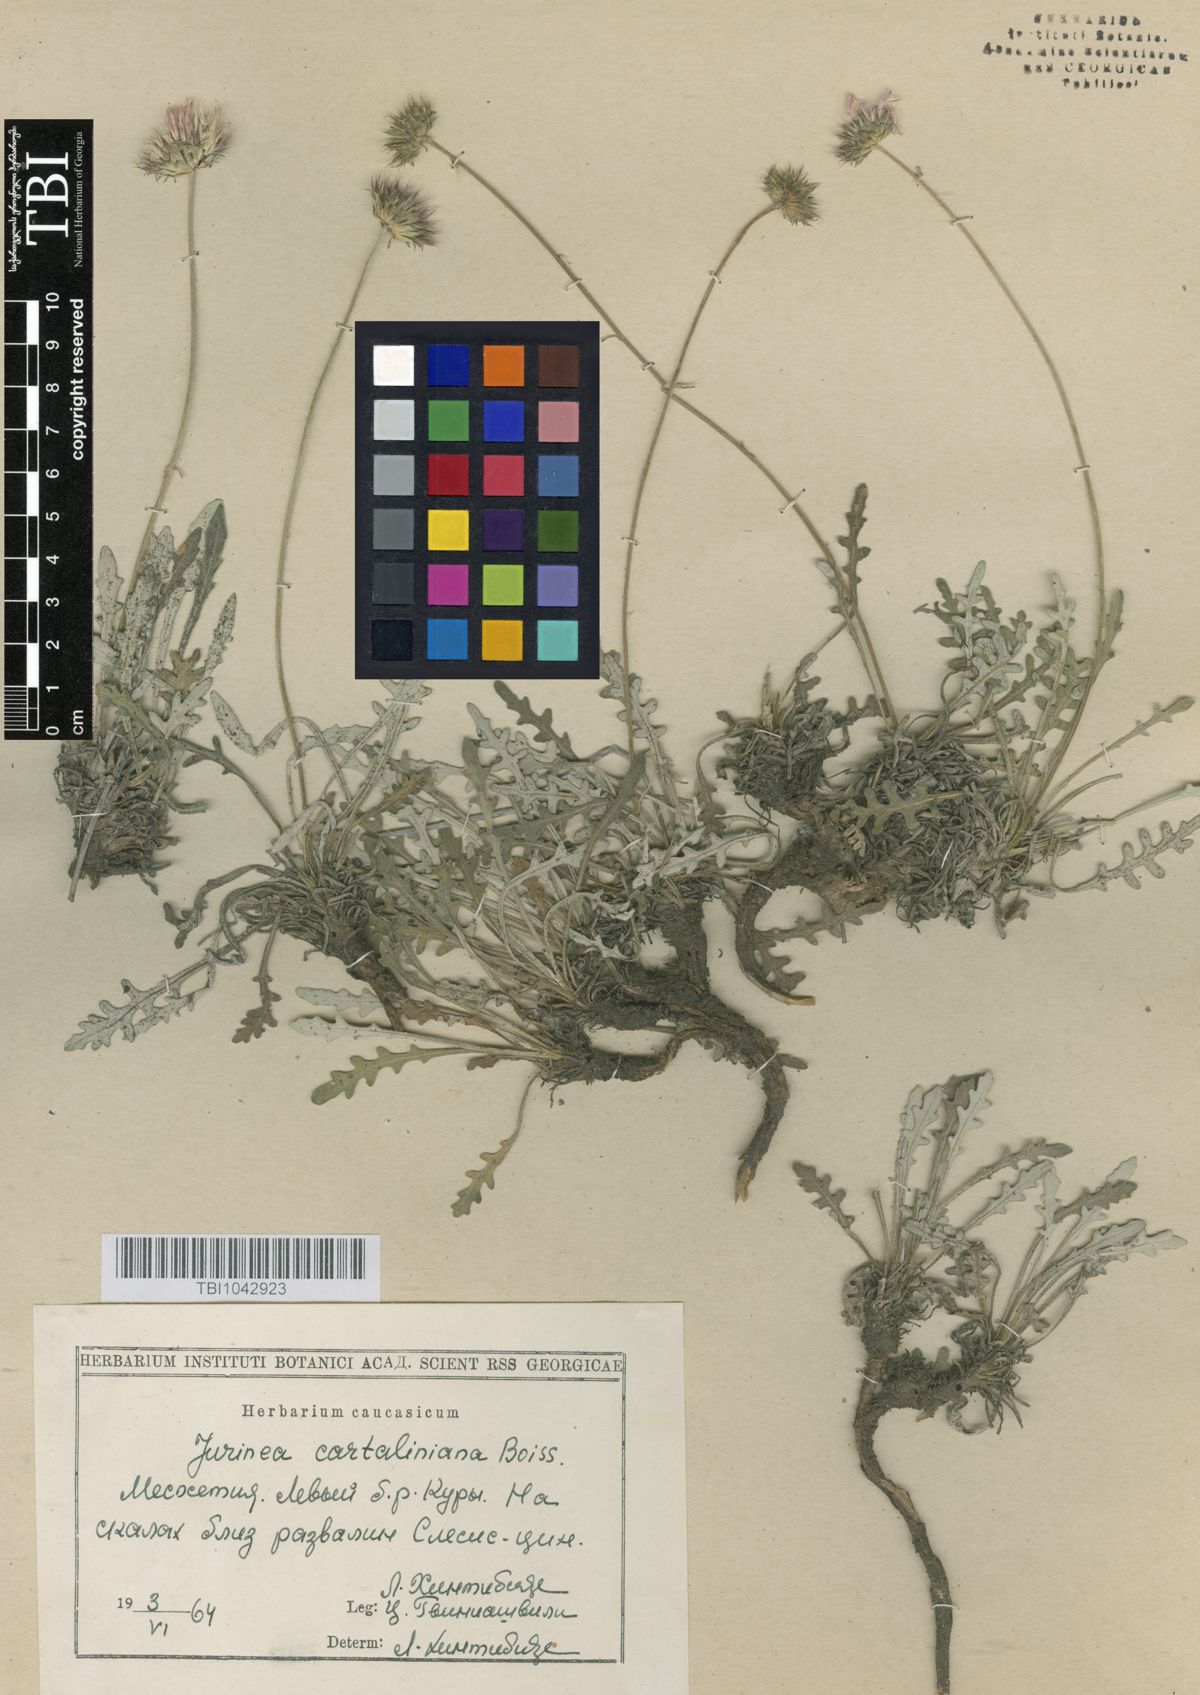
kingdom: Plantae
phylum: Tracheophyta
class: Magnoliopsida
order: Asterales
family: Asteraceae
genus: Jurinea
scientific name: Jurinea cartaliniana
